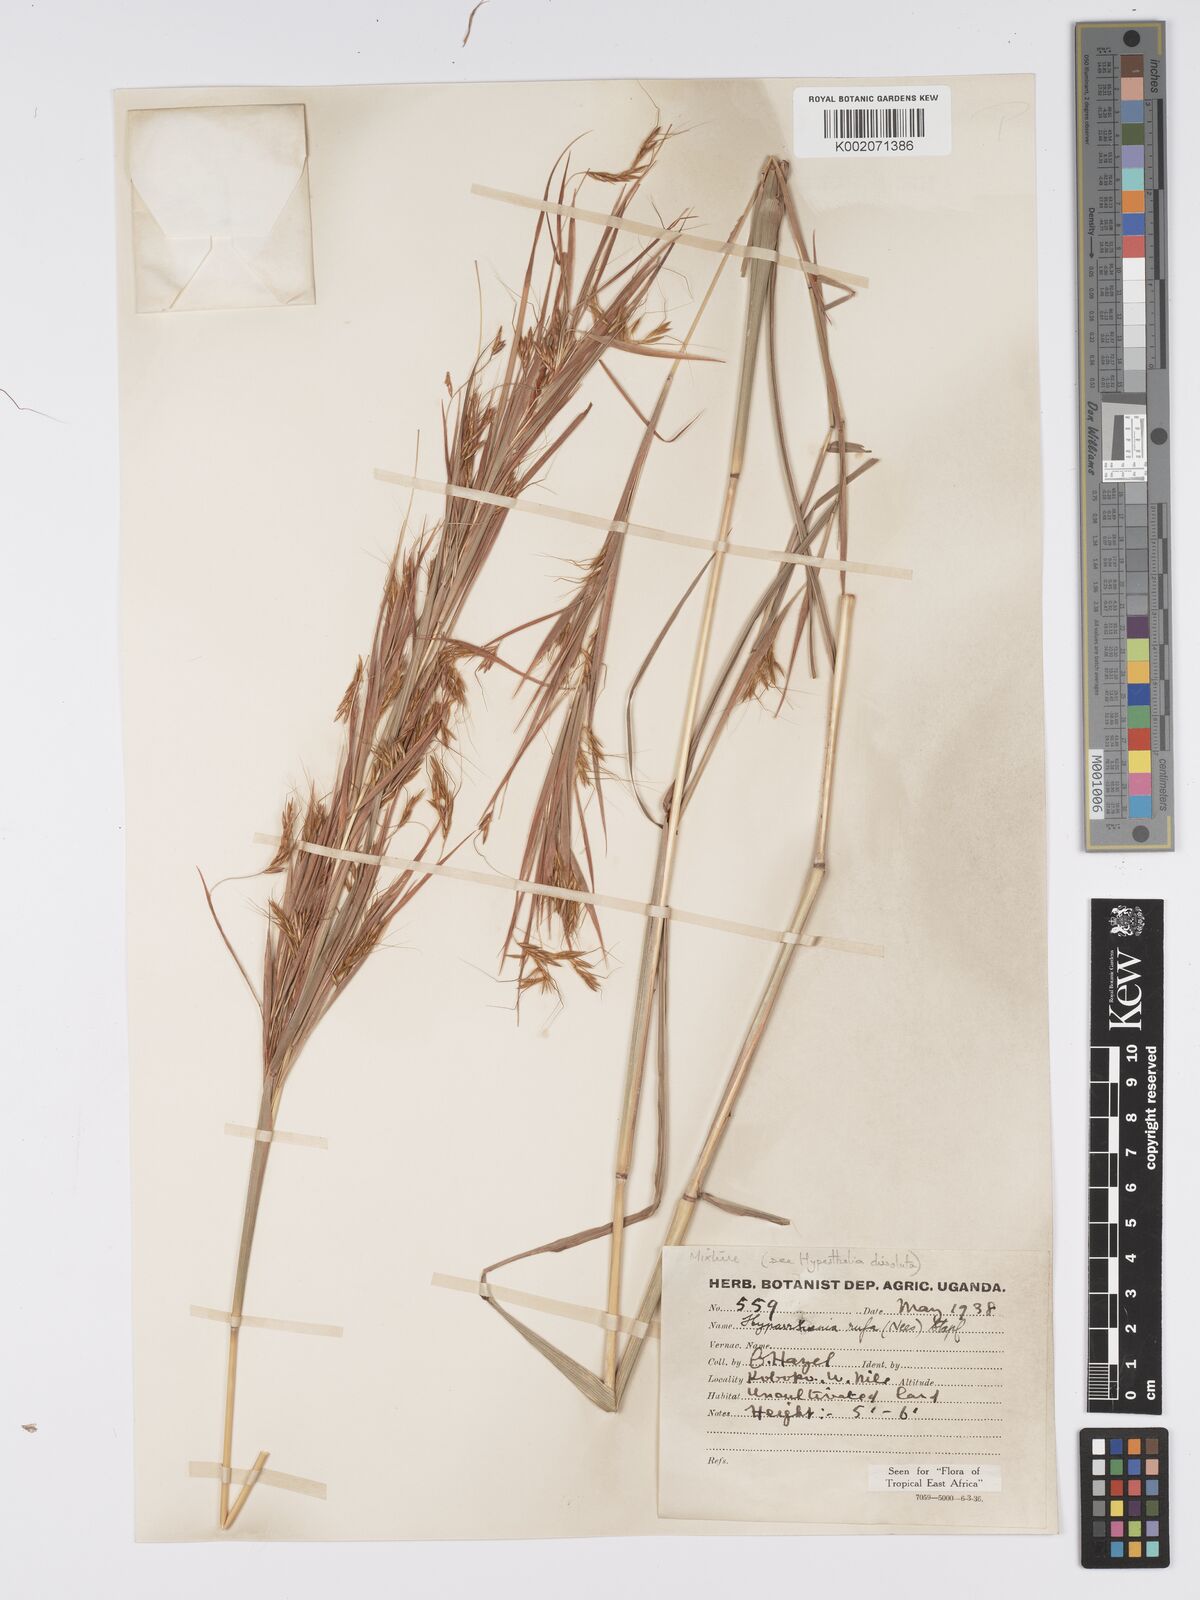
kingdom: Plantae
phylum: Tracheophyta
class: Liliopsida
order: Poales
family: Poaceae
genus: Hyparrhenia
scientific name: Hyparrhenia rufa
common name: Jaraguagrass
